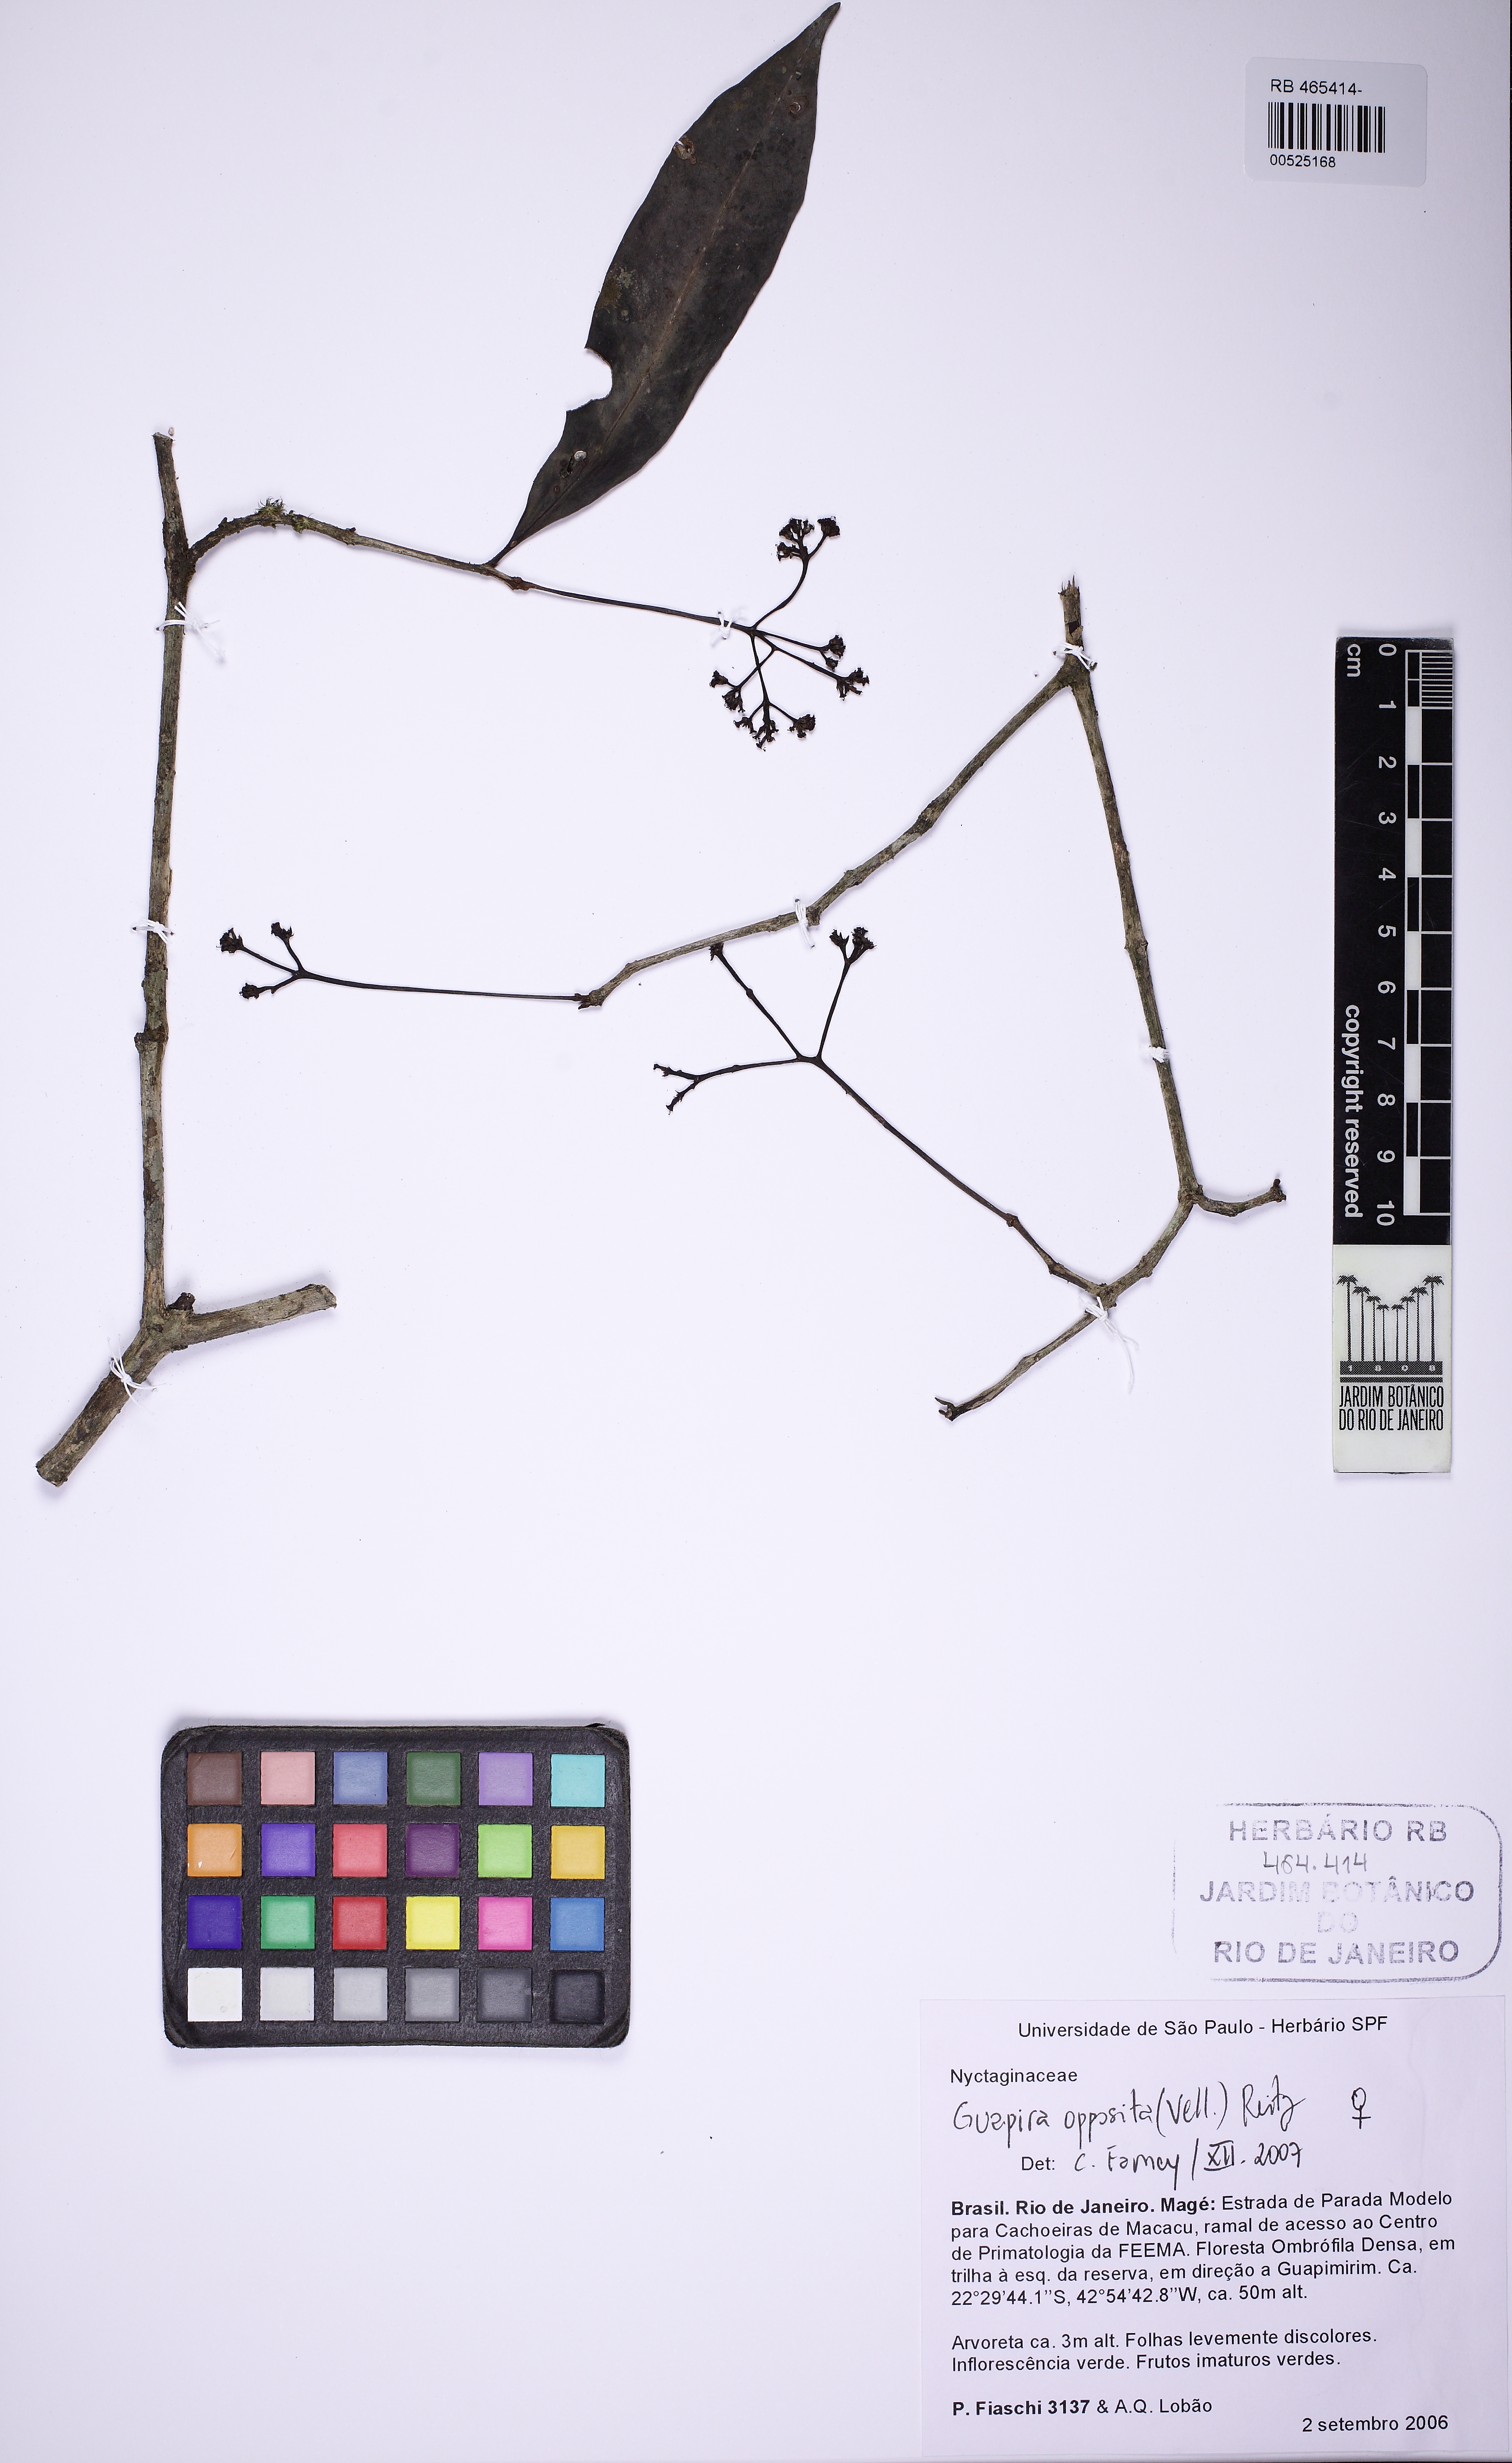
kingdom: Plantae
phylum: Tracheophyta
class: Magnoliopsida
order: Caryophyllales
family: Nyctaginaceae
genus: Guapira
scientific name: Guapira opposita
